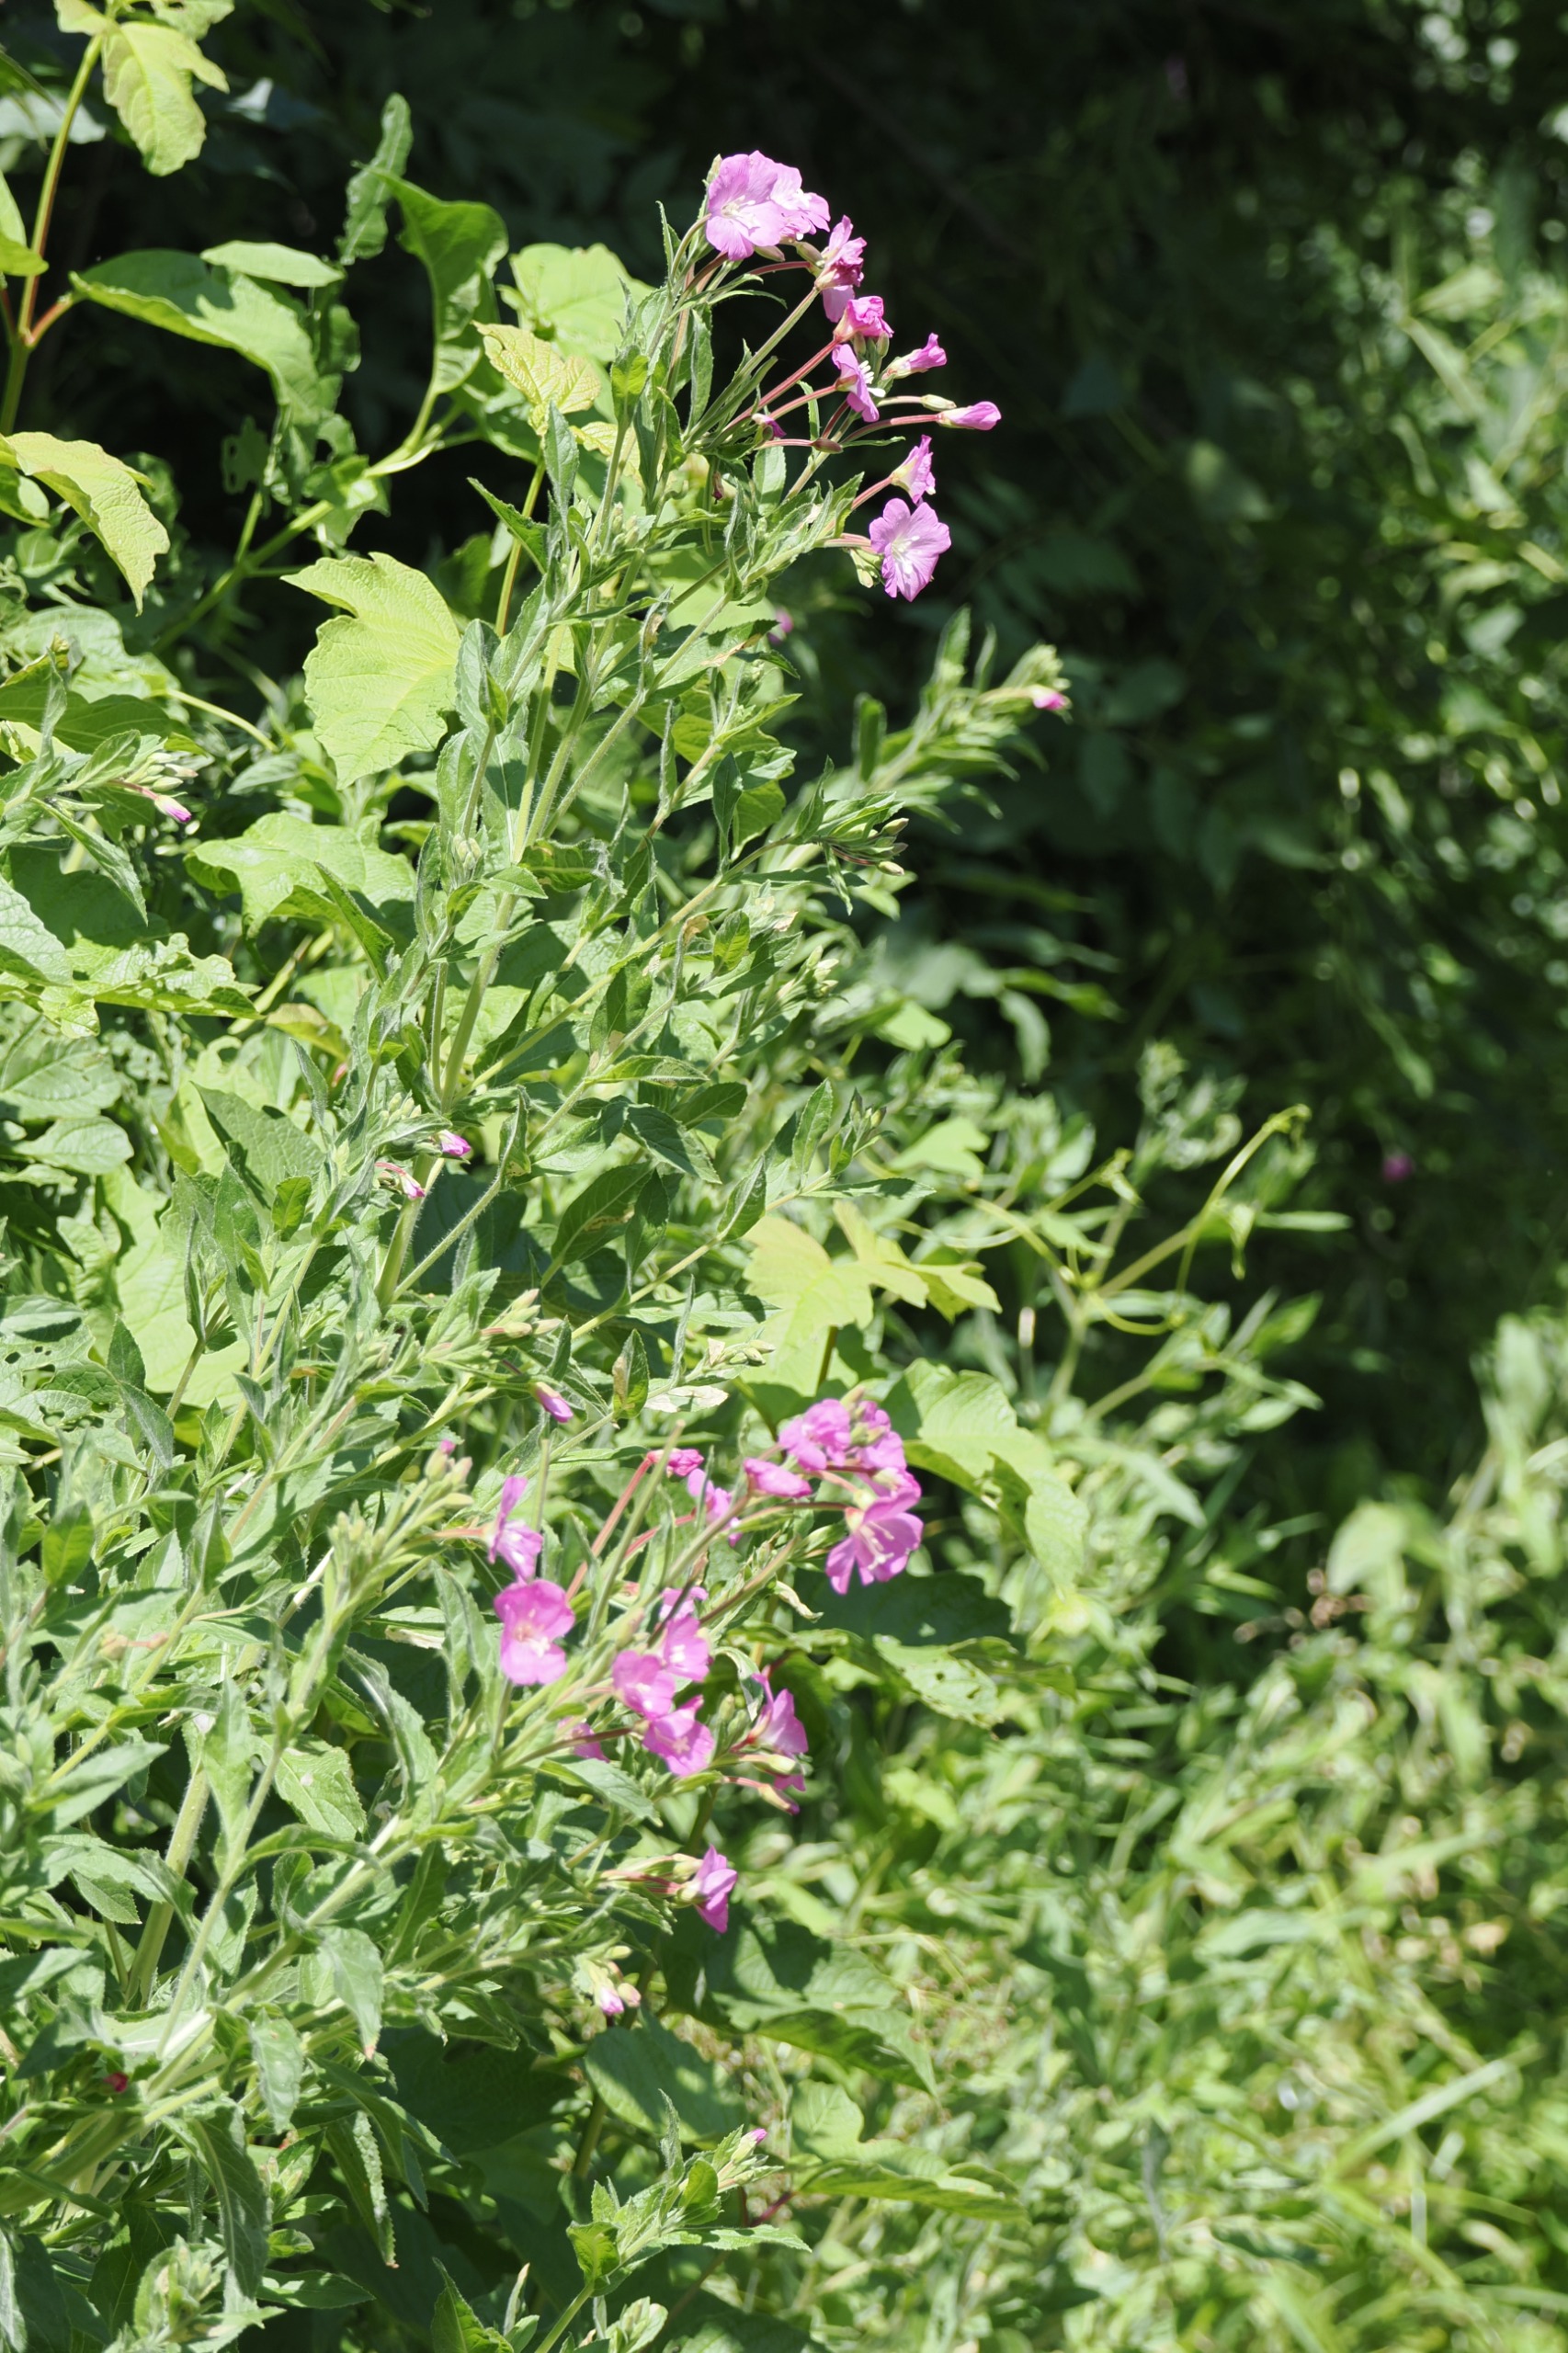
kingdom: Plantae
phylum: Tracheophyta
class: Magnoliopsida
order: Myrtales
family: Onagraceae
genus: Epilobium
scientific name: Epilobium hirsutum
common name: Lådden dueurt
